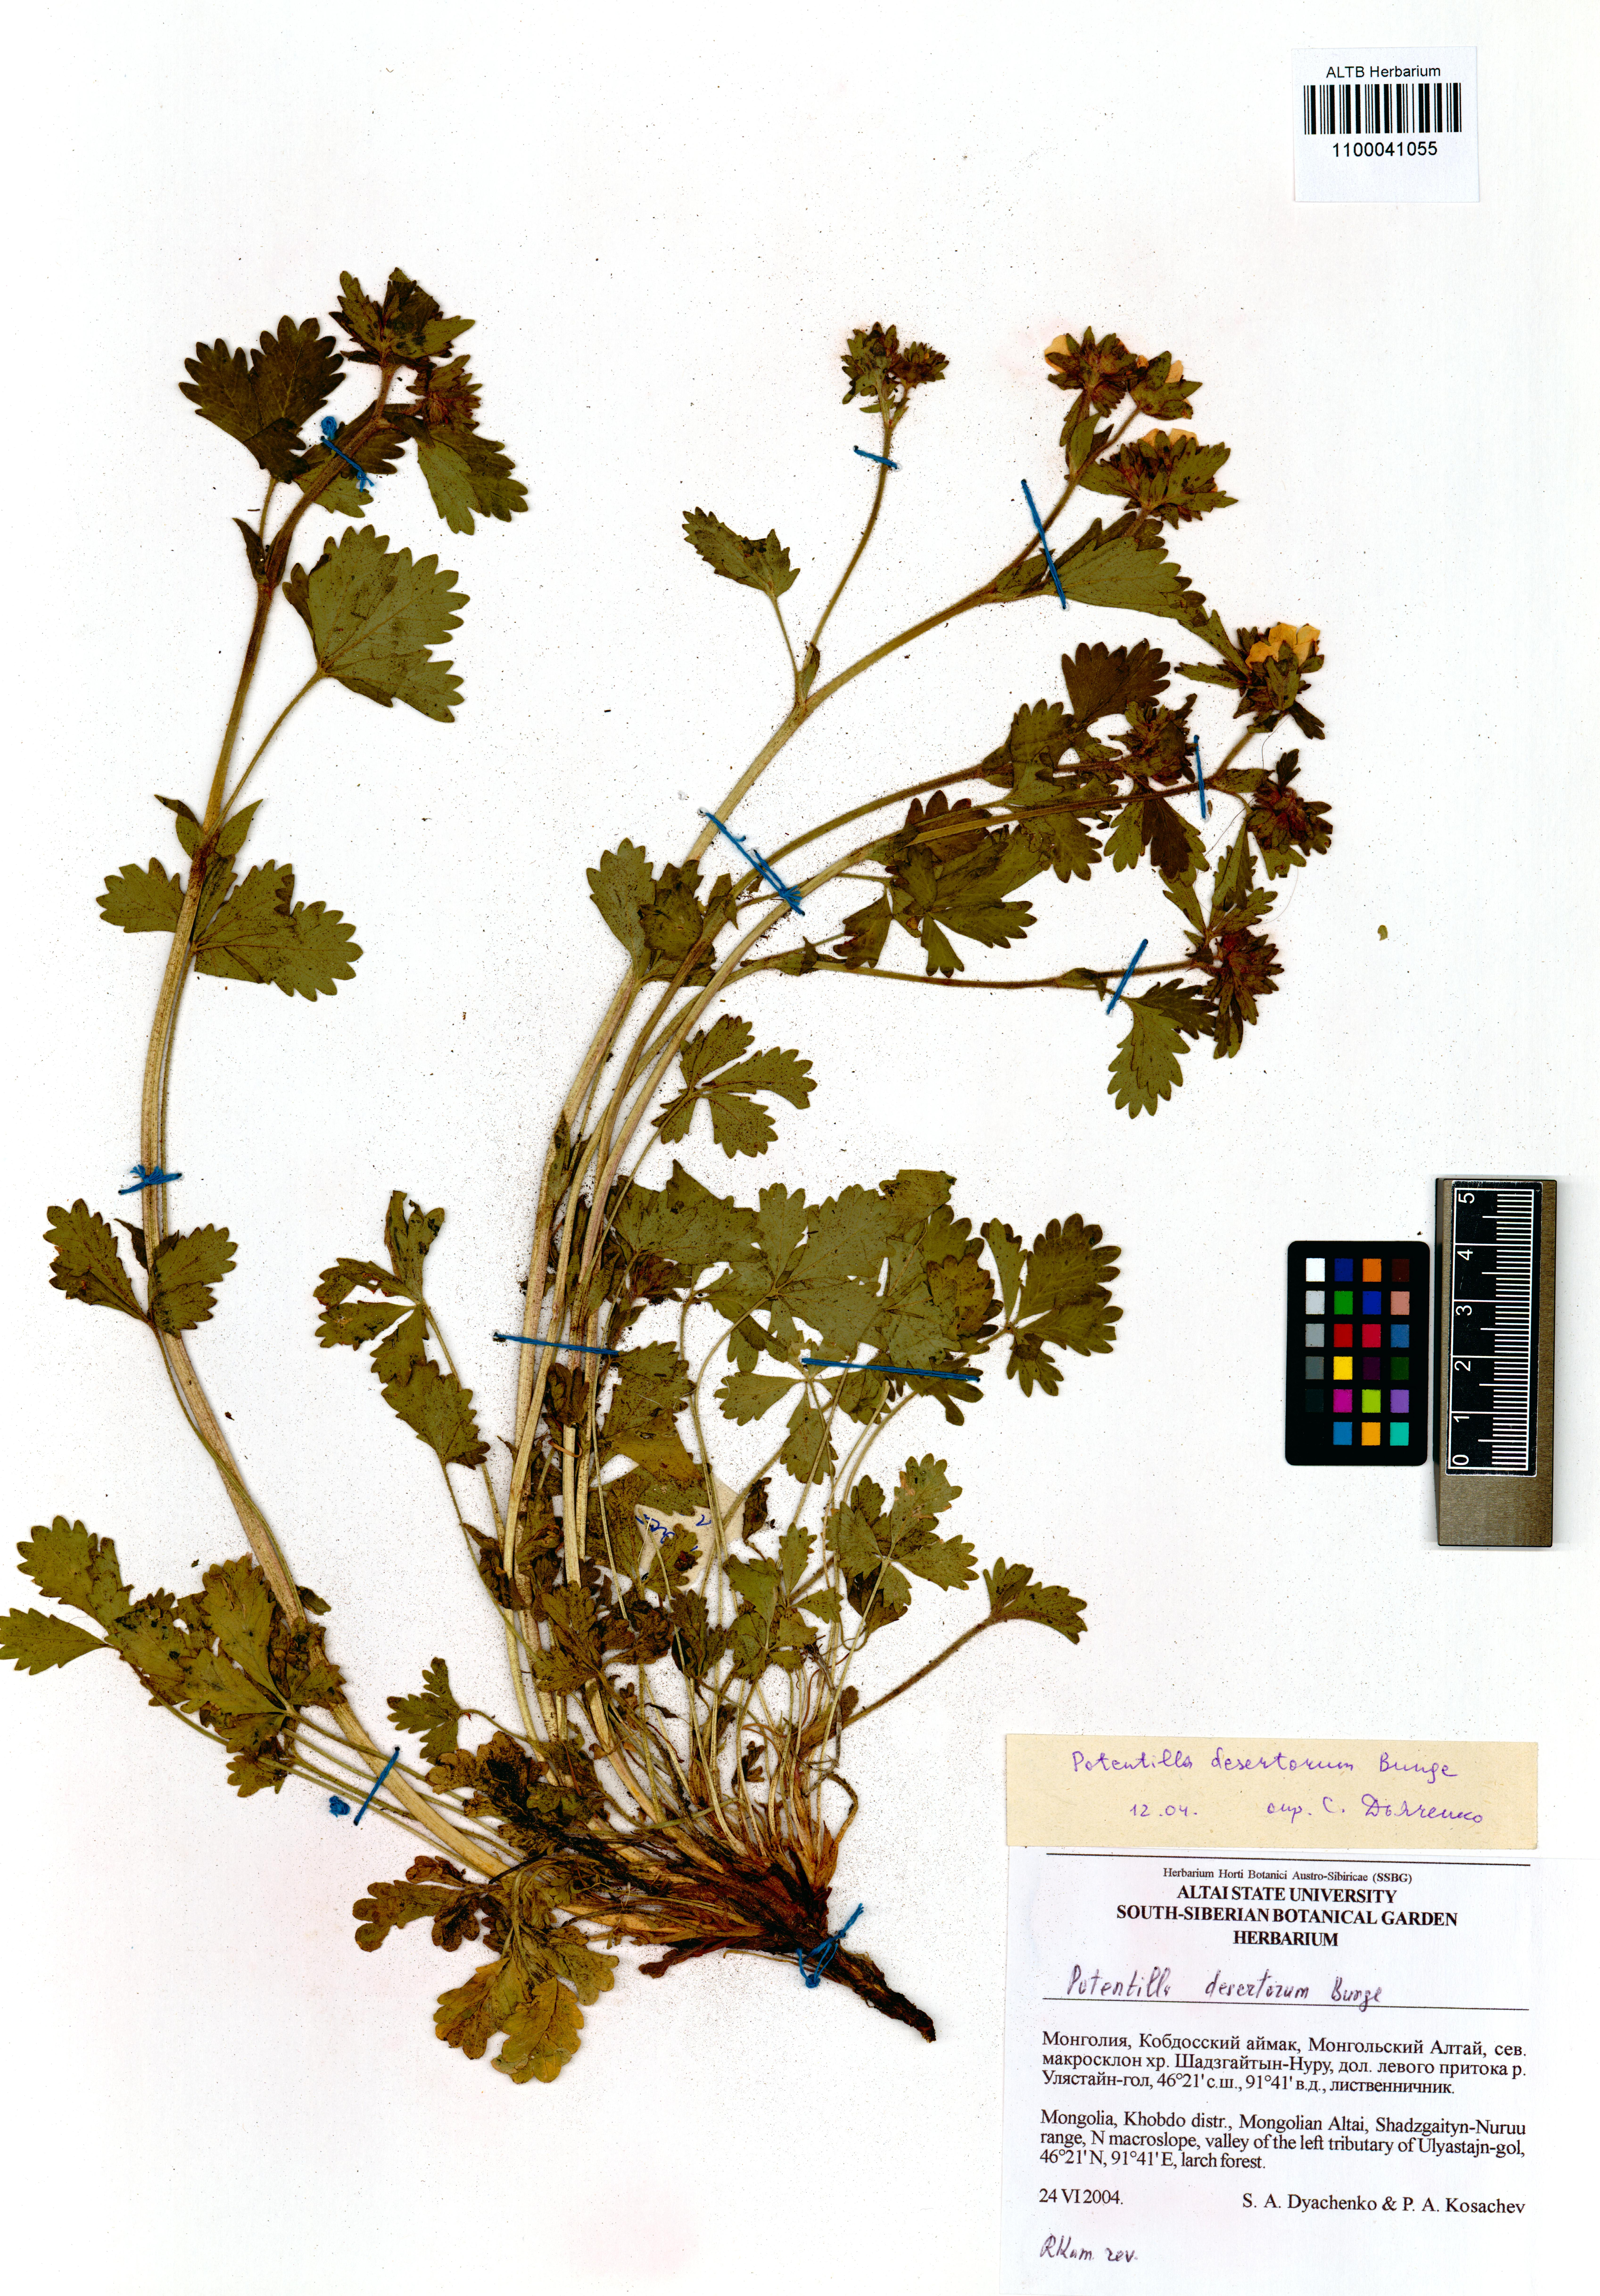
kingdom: Plantae
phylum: Tracheophyta
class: Magnoliopsida
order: Rosales
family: Rosaceae
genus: Potentilla
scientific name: Potentilla desertorum
